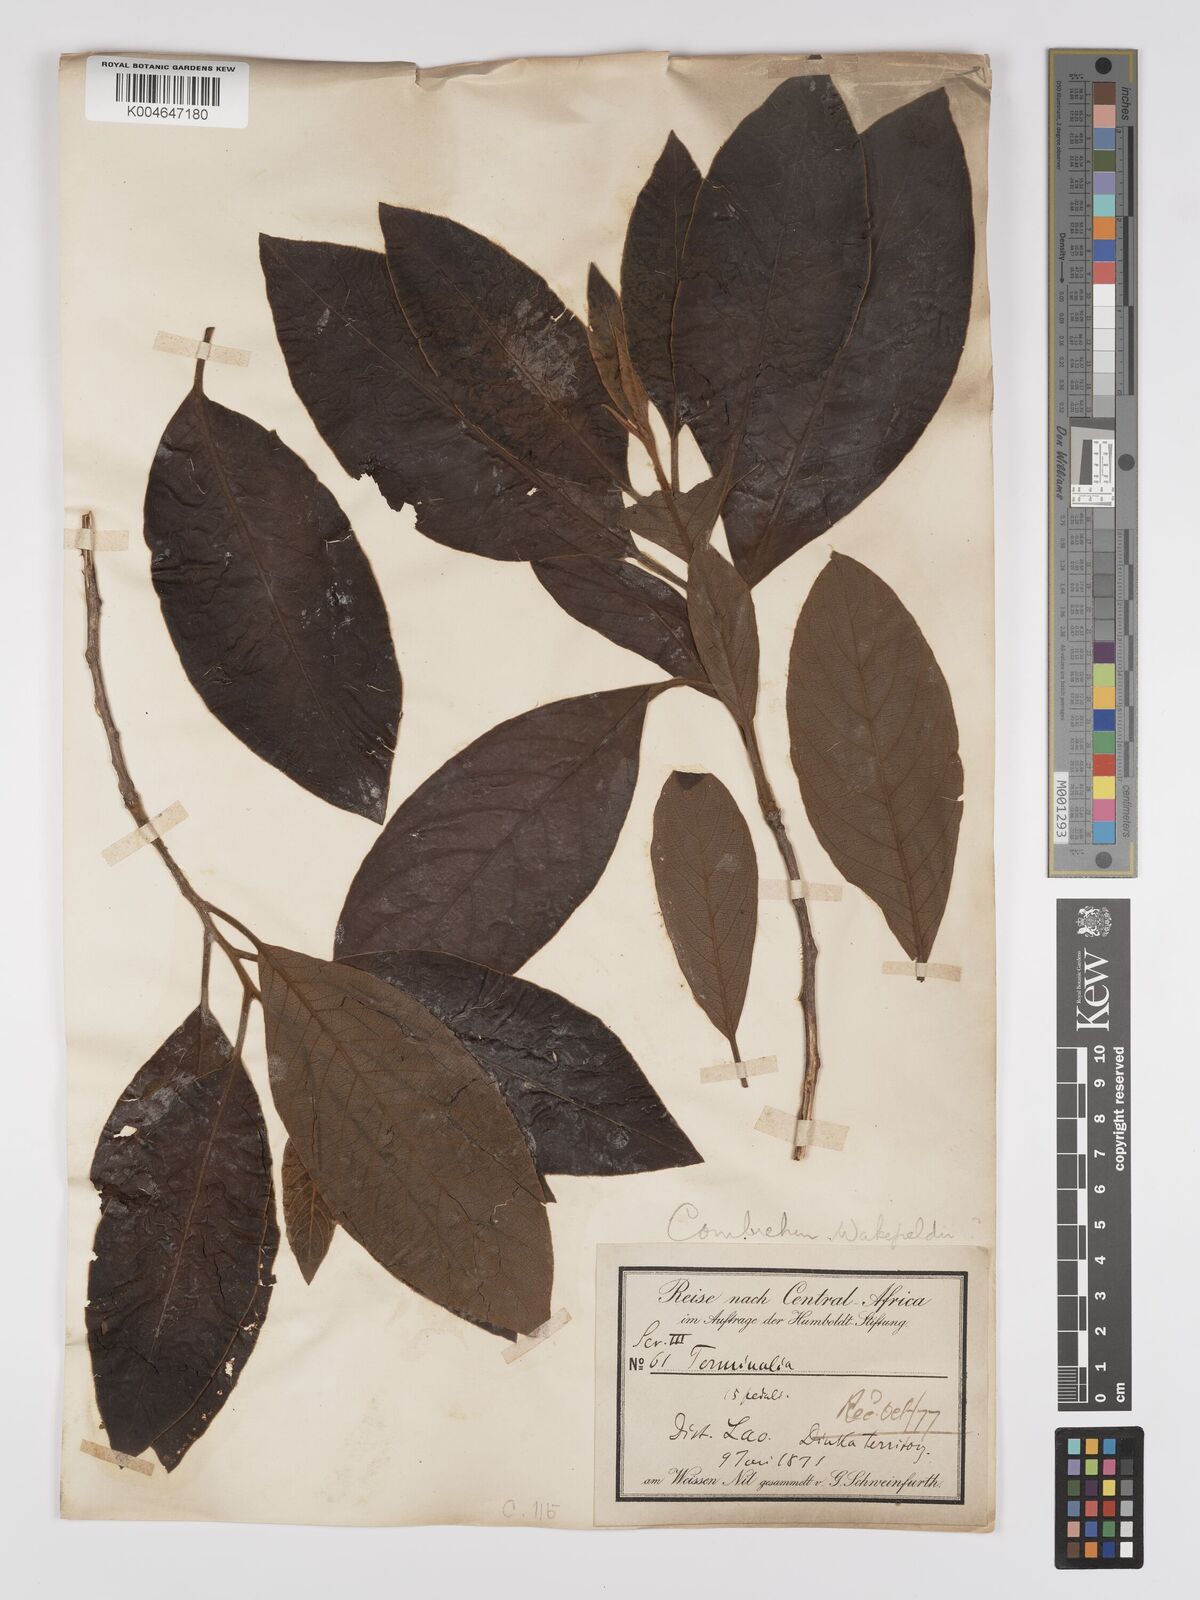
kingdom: Plantae
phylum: Tracheophyta
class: Magnoliopsida
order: Myrtales
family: Combretaceae
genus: Terminalia
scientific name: Terminalia schimperiana
